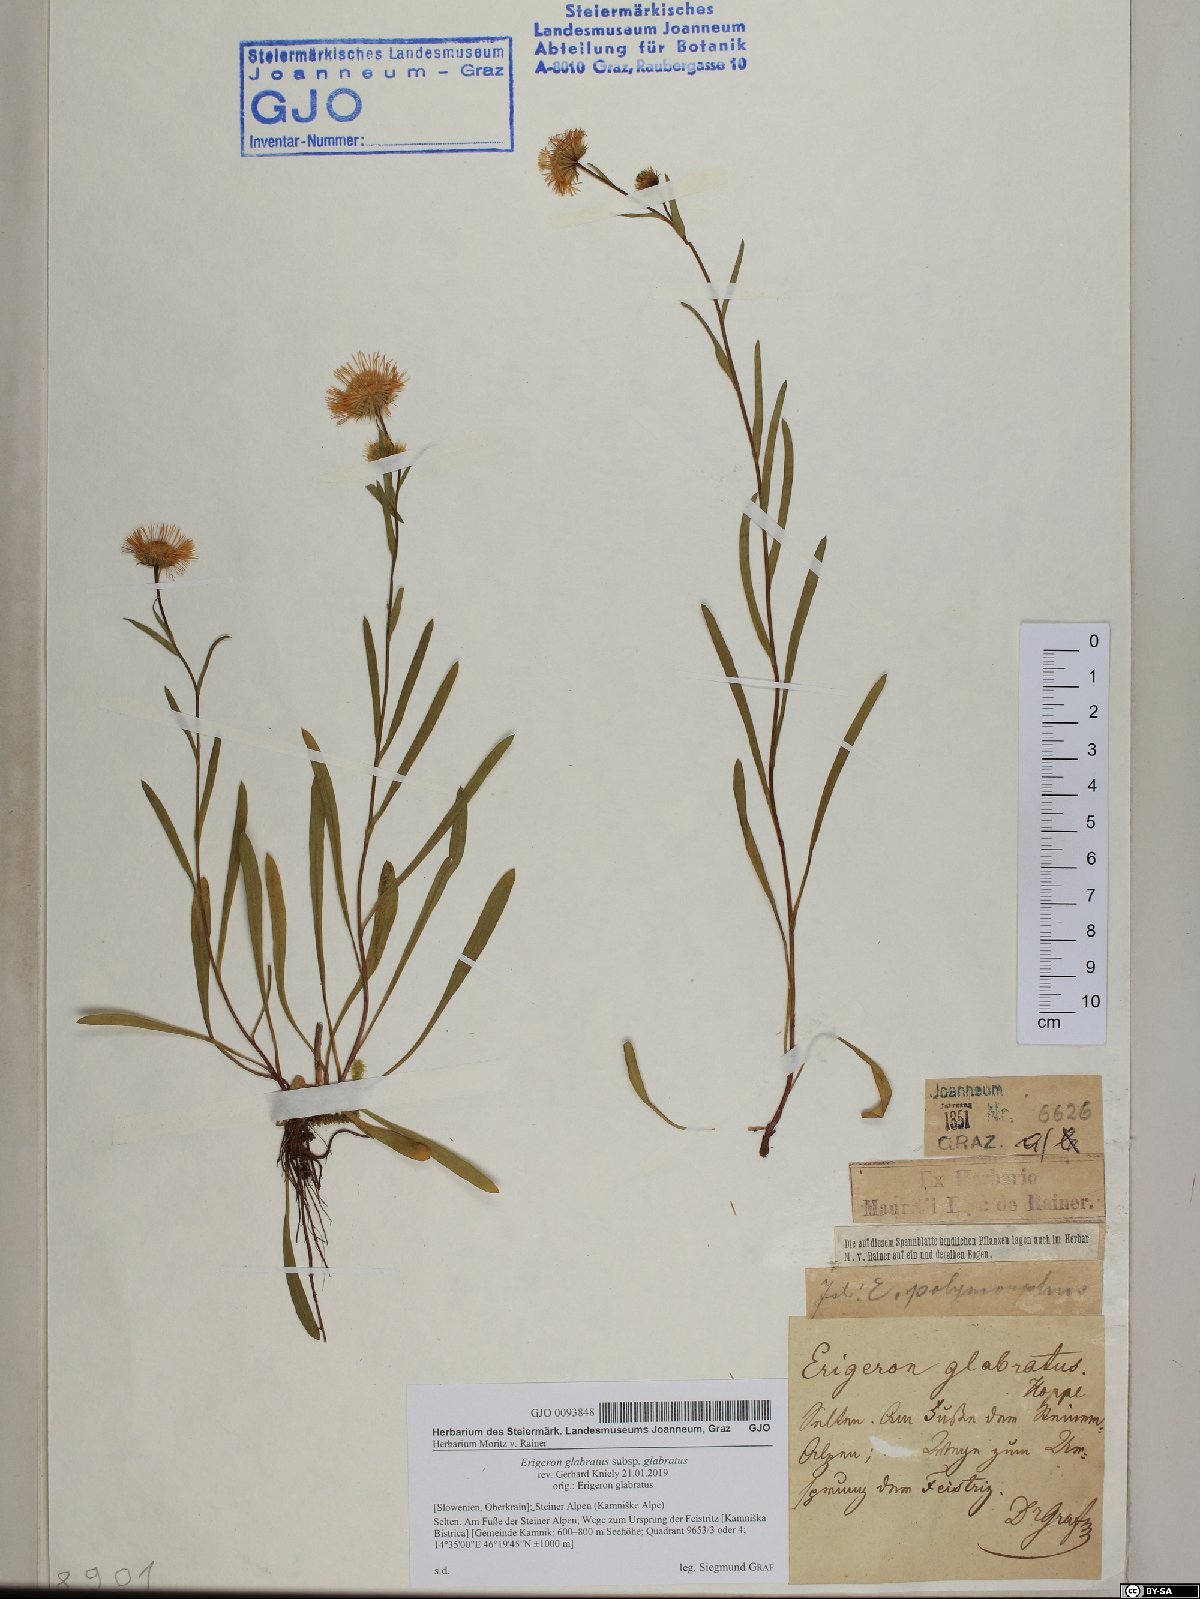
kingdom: Plantae
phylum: Tracheophyta
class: Magnoliopsida
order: Asterales
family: Asteraceae
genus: Erigeron
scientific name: Erigeron glabratus
